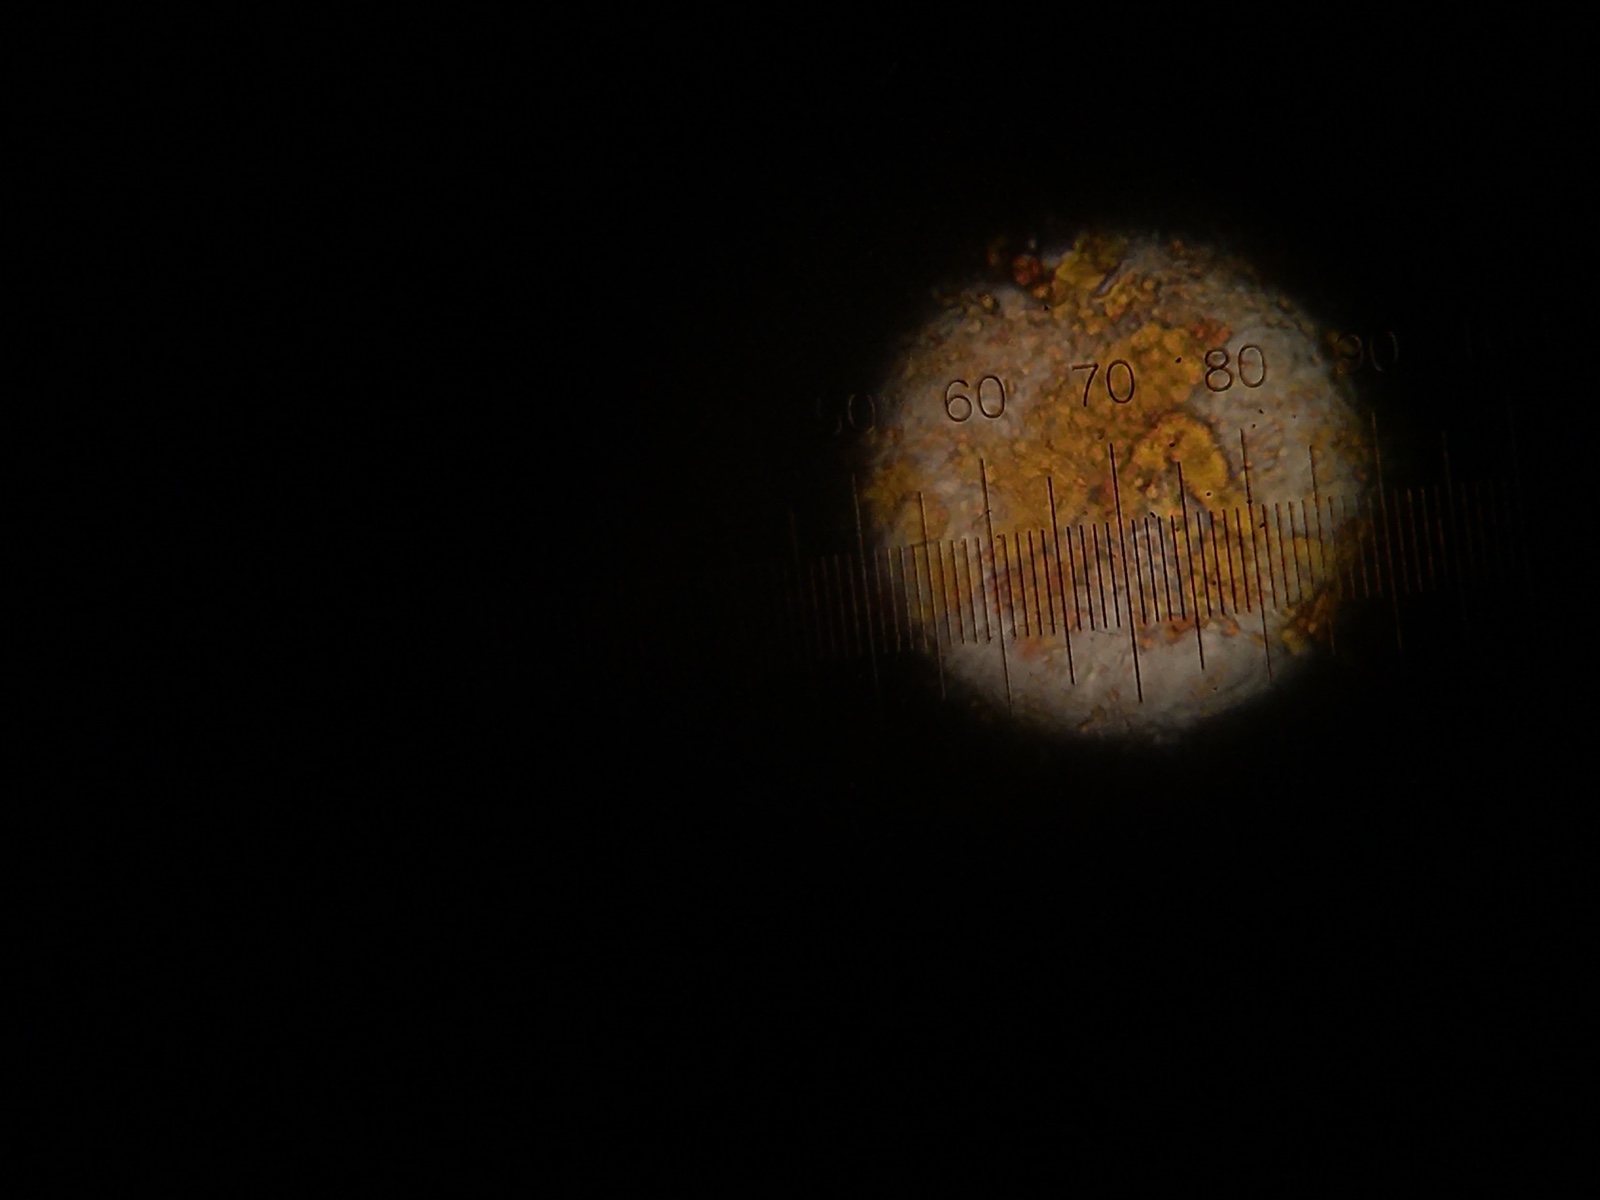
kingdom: Fungi
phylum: Basidiomycota
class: Pucciniomycetes
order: Pucciniales
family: Coleosporiaceae
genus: Coleosporium
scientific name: Coleosporium sonchi
